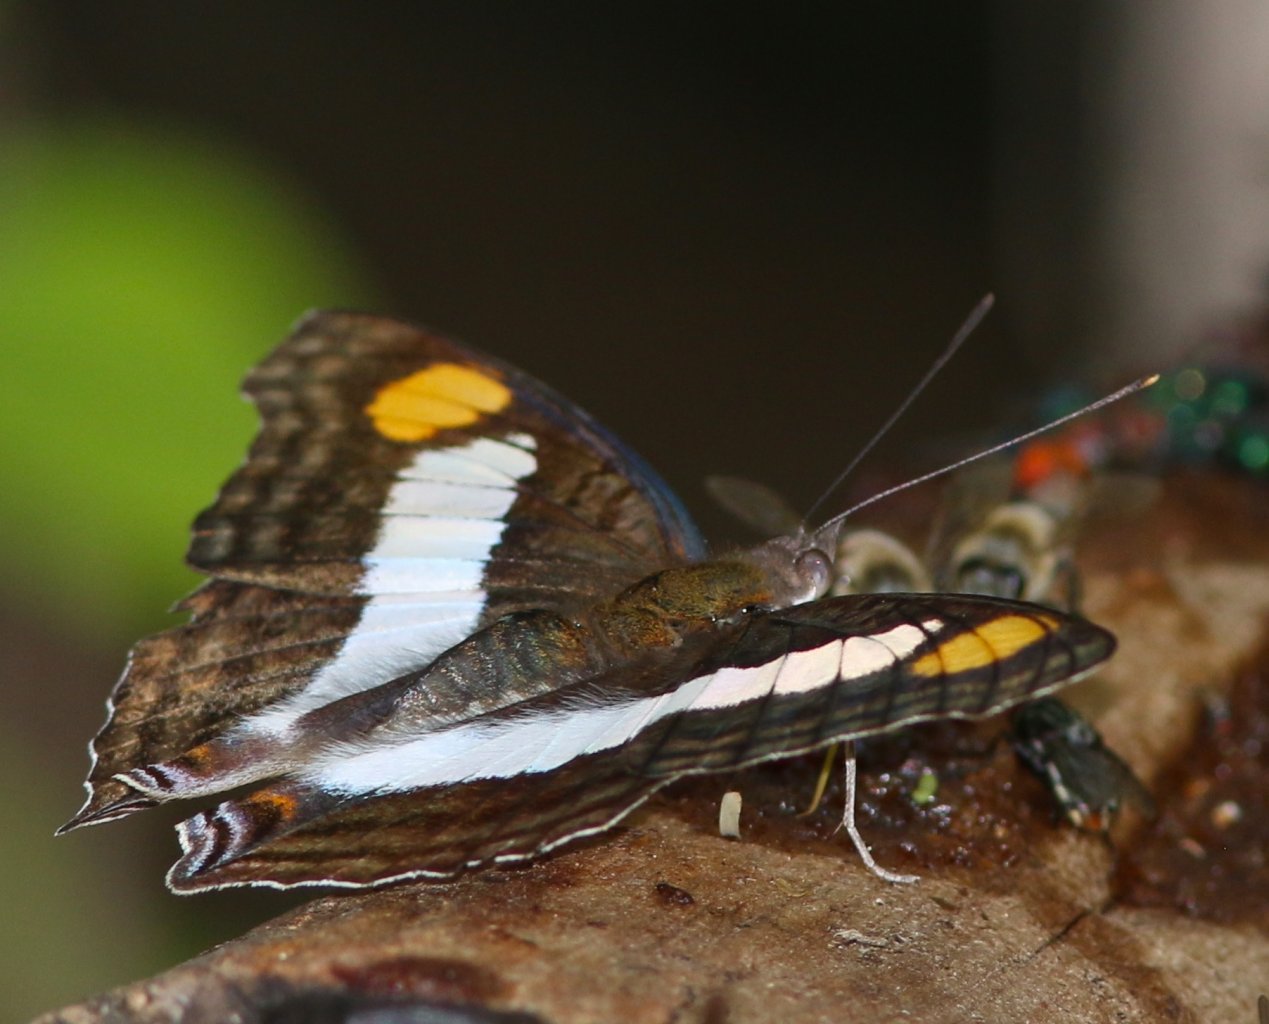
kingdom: Animalia
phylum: Arthropoda
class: Insecta
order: Lepidoptera
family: Nymphalidae
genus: Doxocopa
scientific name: Doxocopa laure
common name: Silver Emperor
